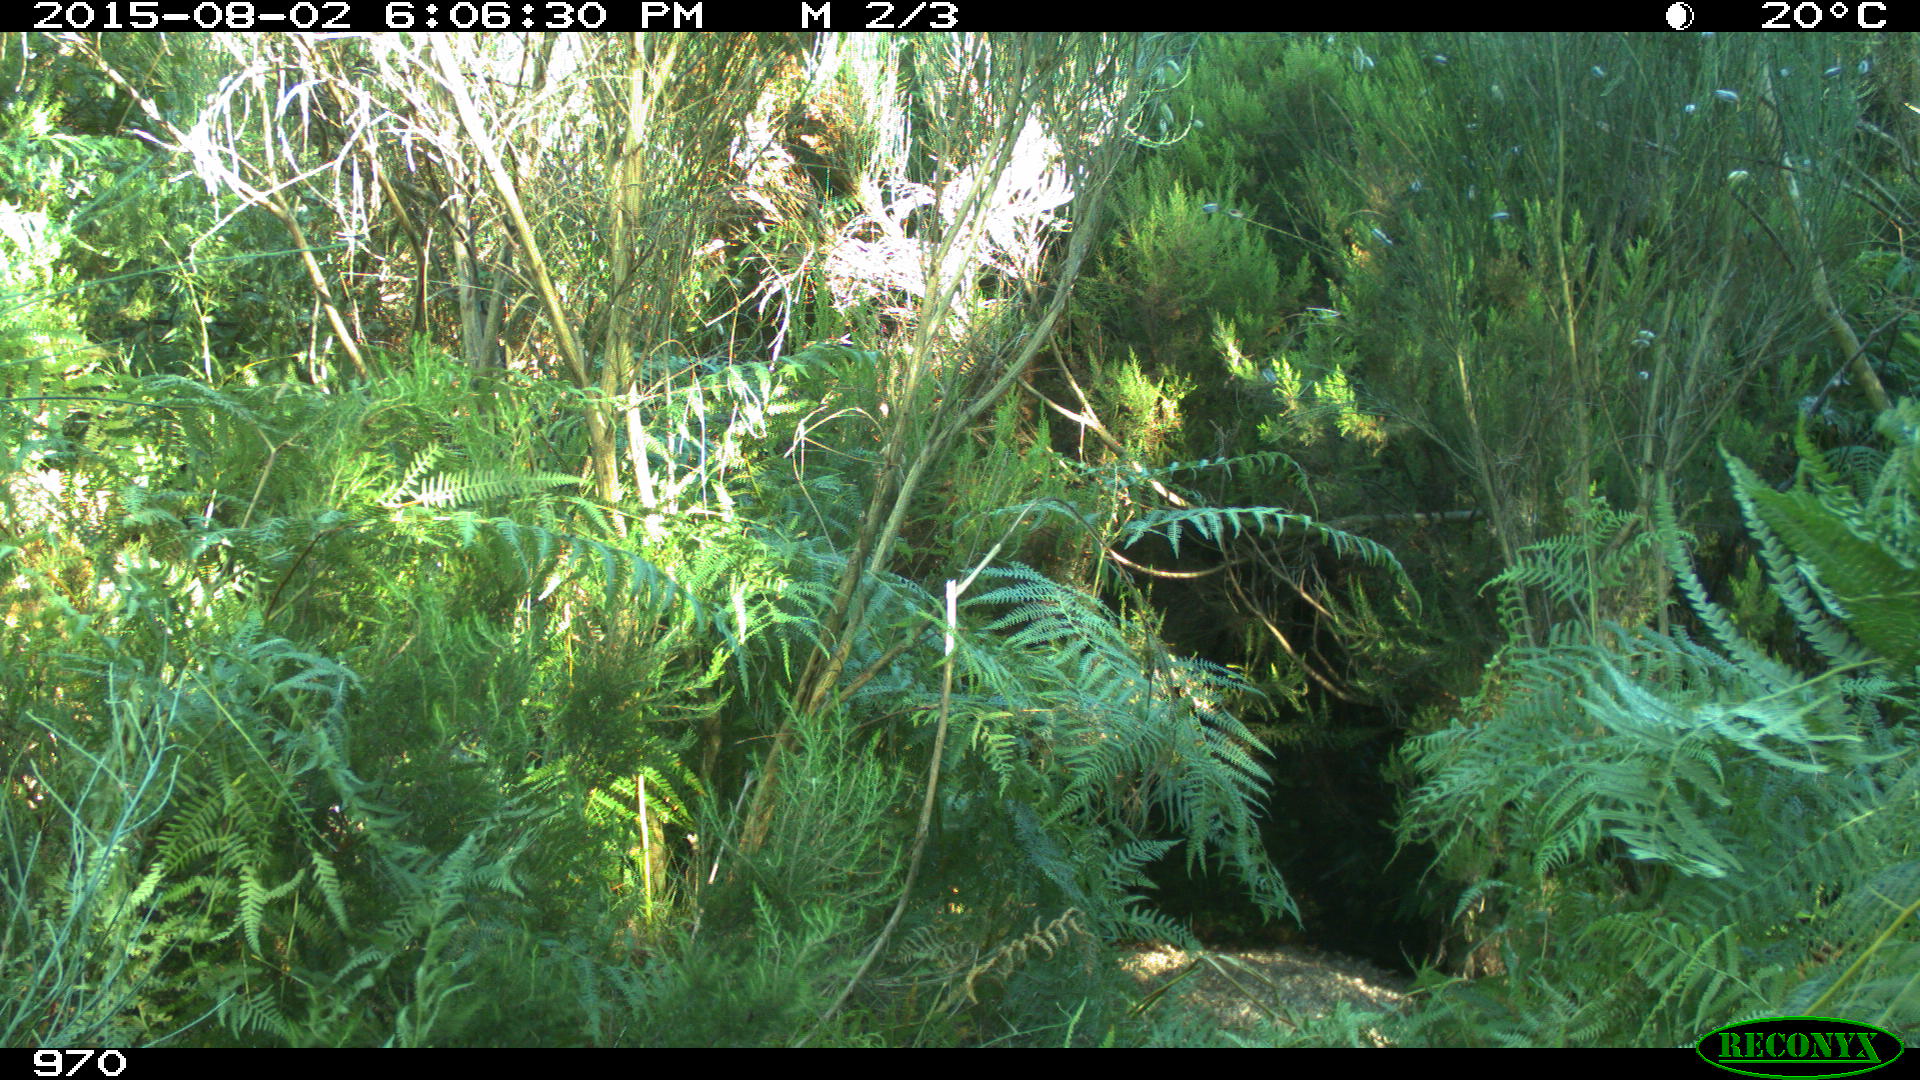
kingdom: Animalia
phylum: Chordata
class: Mammalia
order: Artiodactyla
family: Cervidae
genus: Capreolus
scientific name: Capreolus capreolus
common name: Western roe deer
